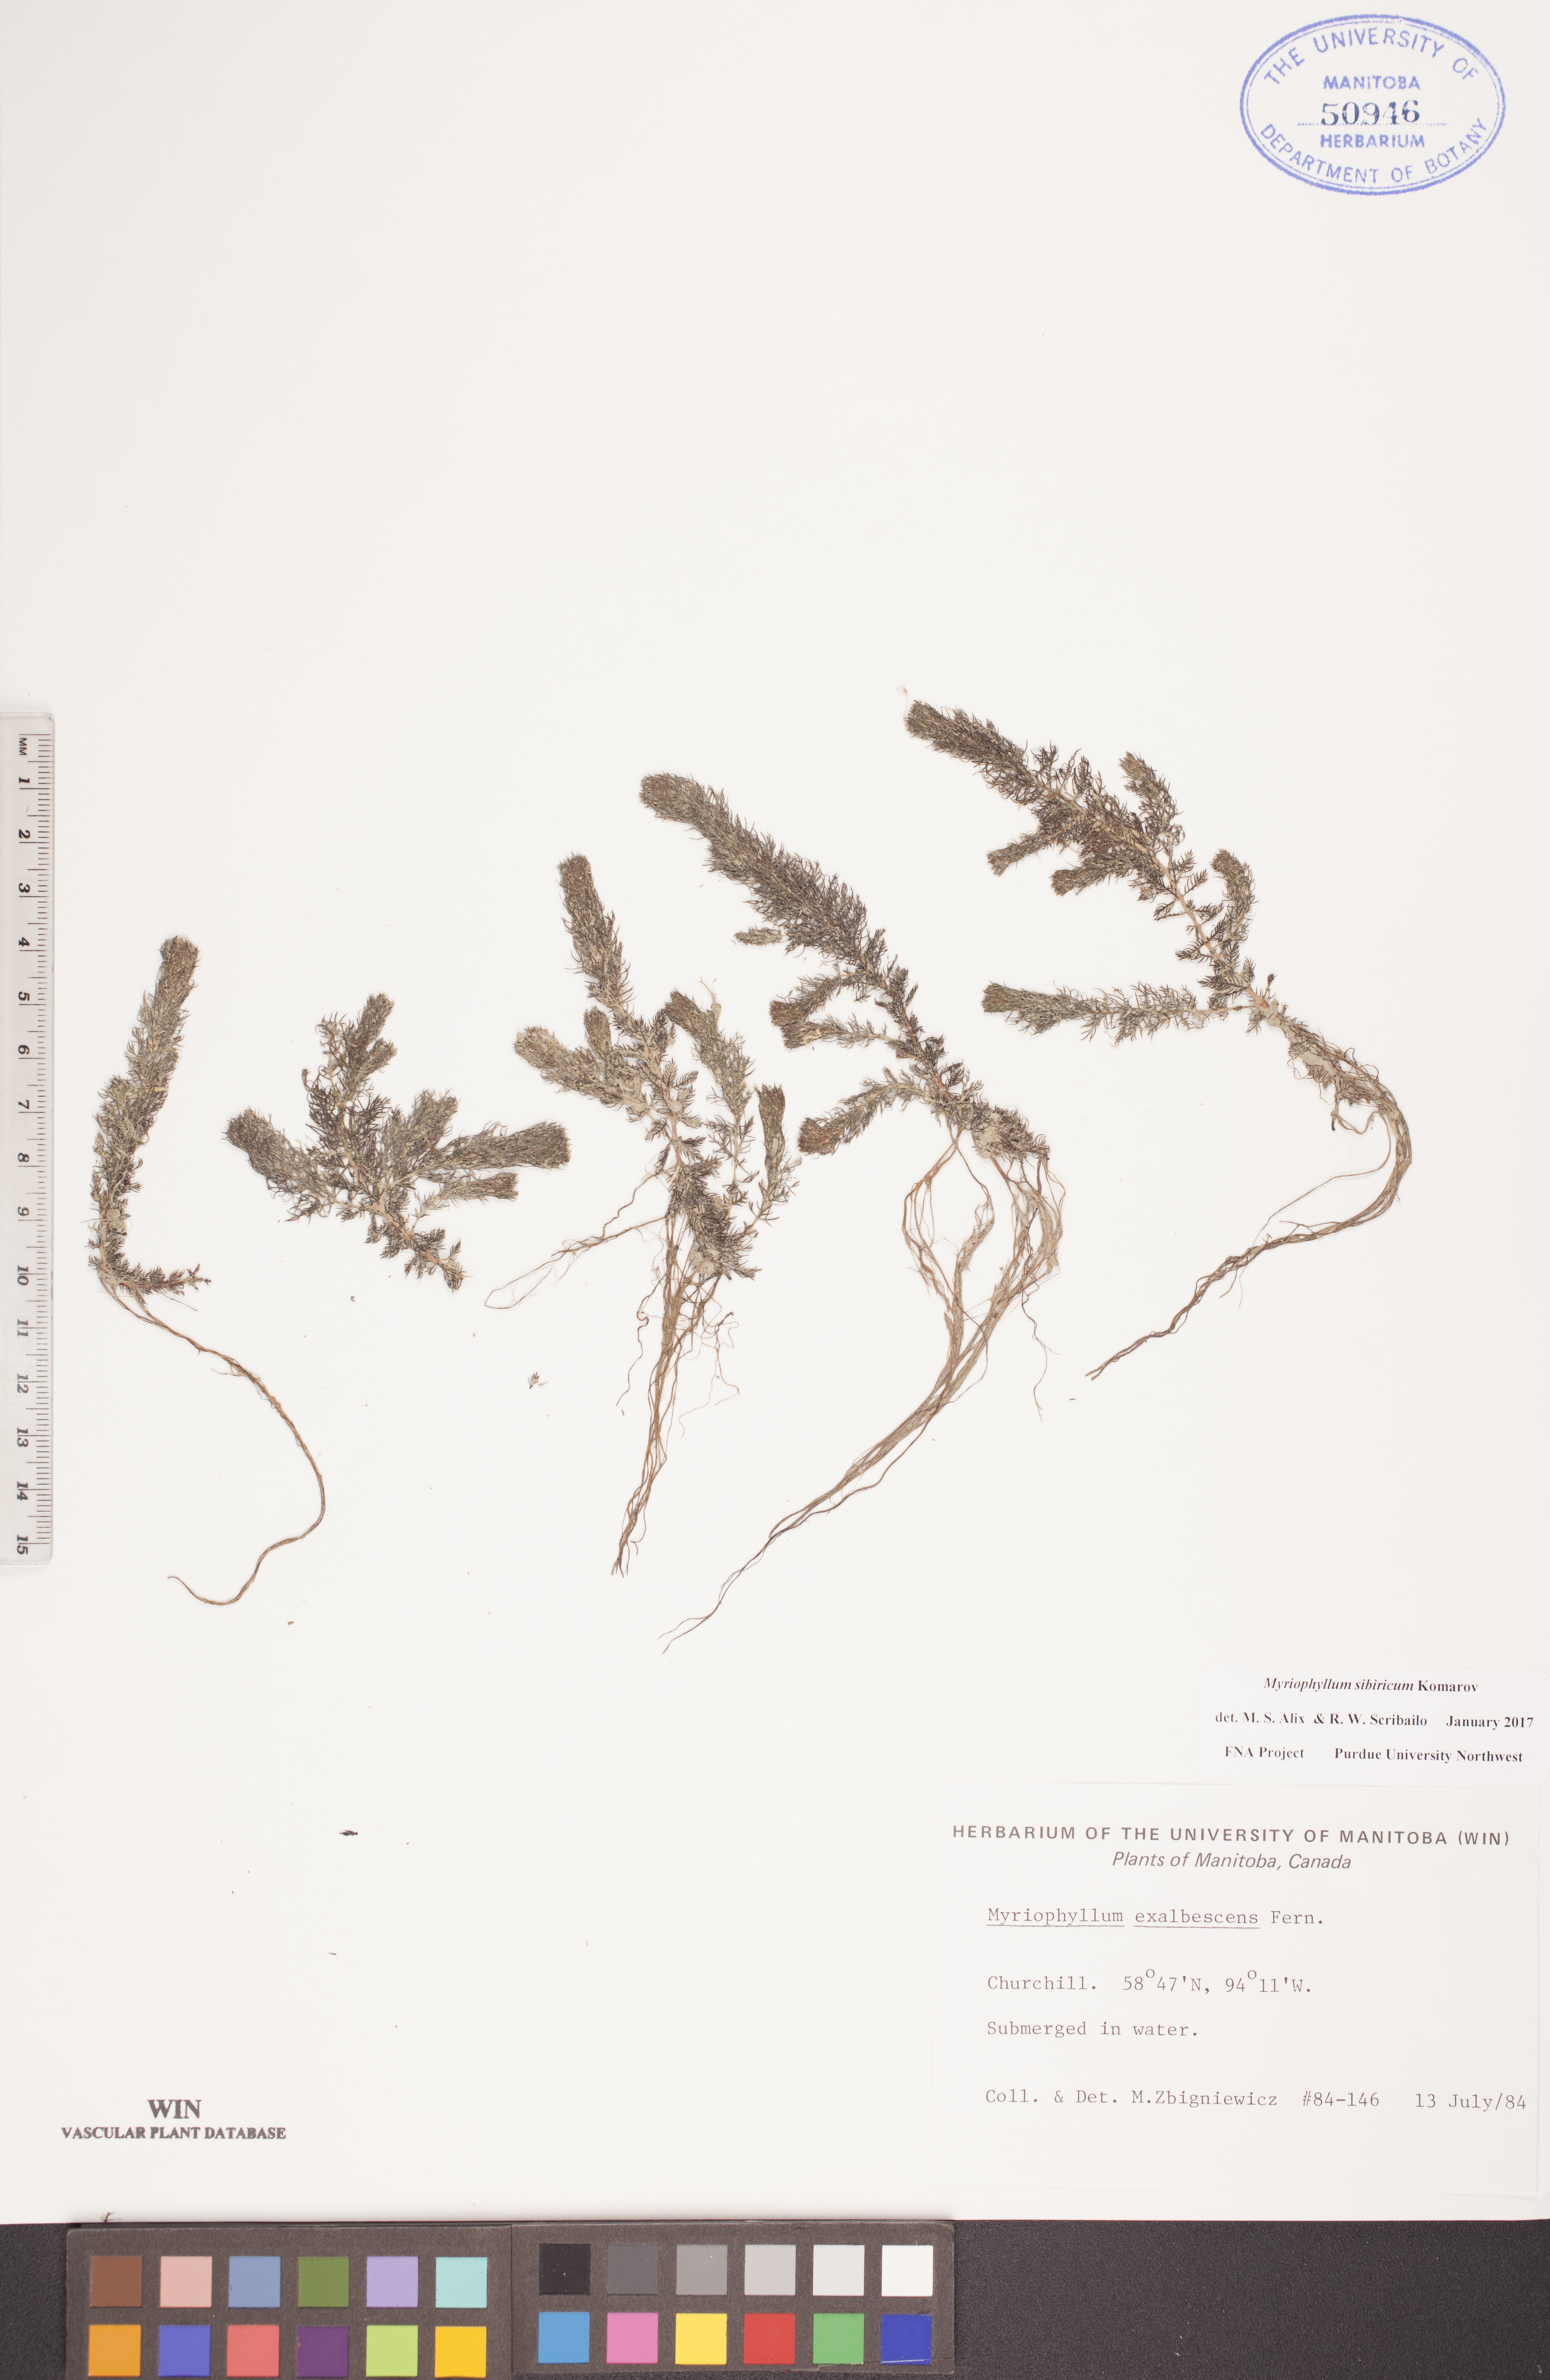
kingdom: Plantae
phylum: Tracheophyta
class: Magnoliopsida
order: Saxifragales
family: Haloragaceae
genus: Myriophyllum
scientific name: Myriophyllum sibiricum
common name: Siberian water-milfoil
